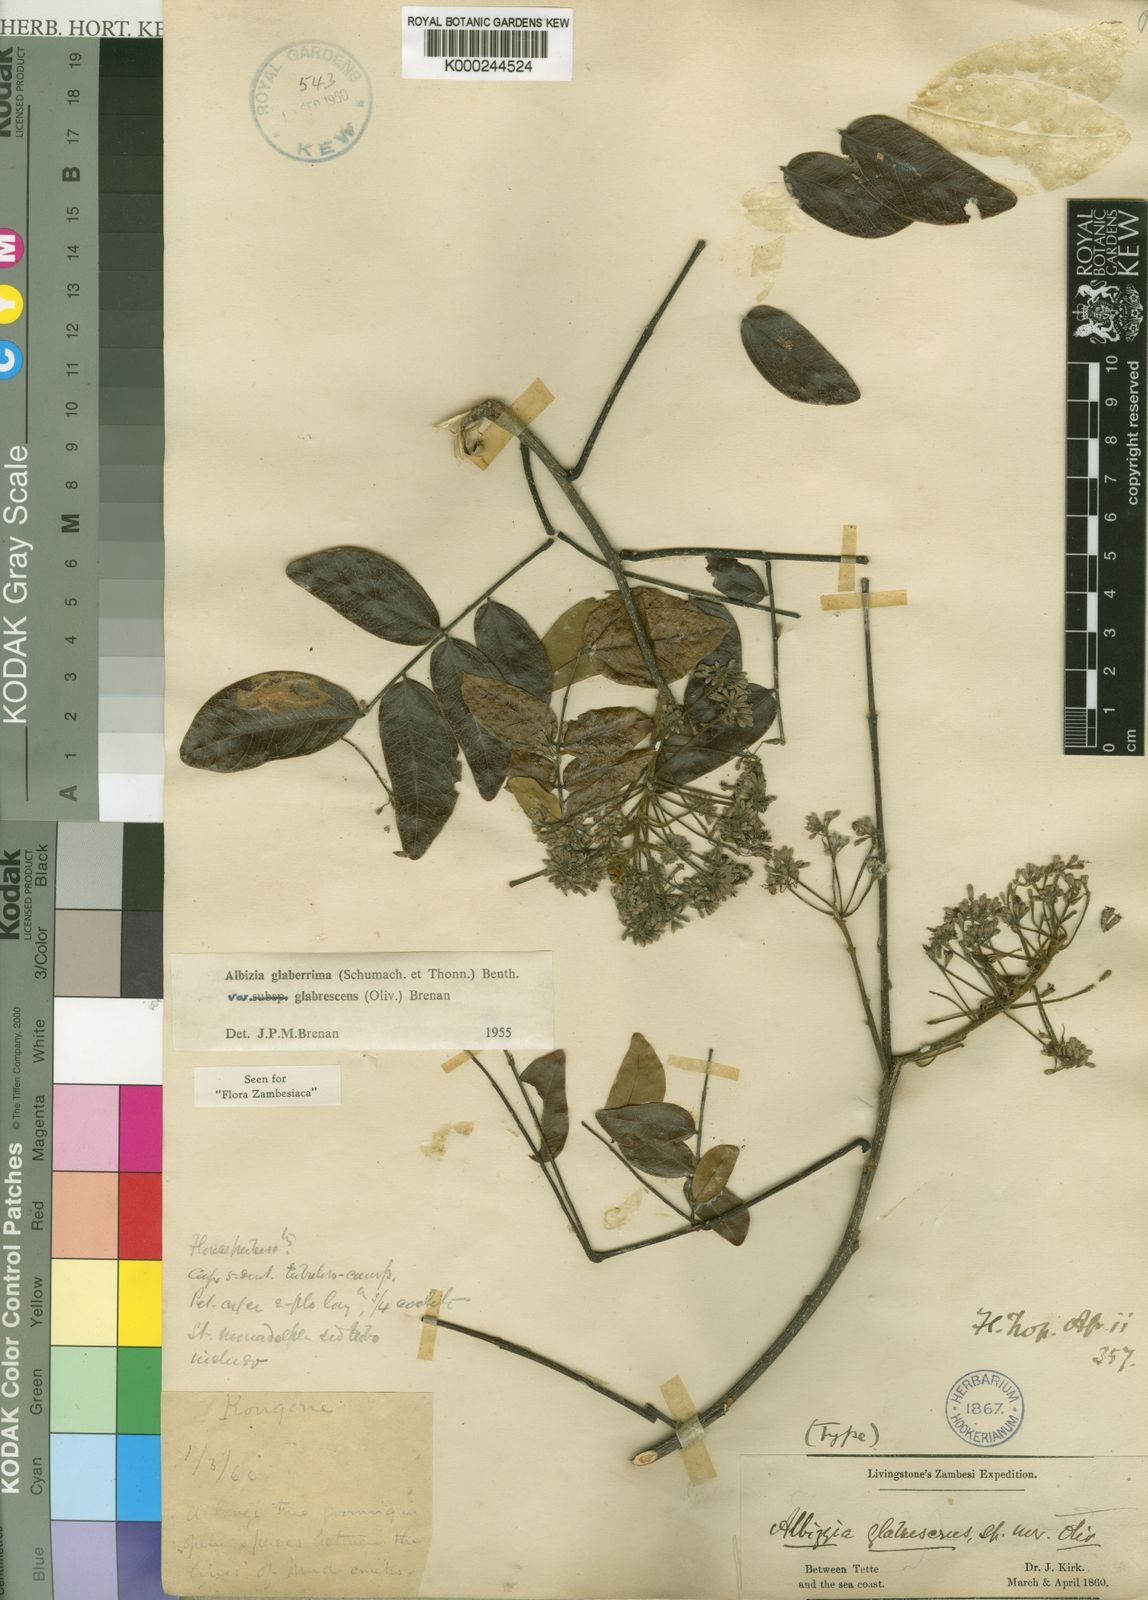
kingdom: Plantae
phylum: Tracheophyta
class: Magnoliopsida
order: Fabales
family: Fabaceae
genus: Albizia
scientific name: Albizia glaberrima
